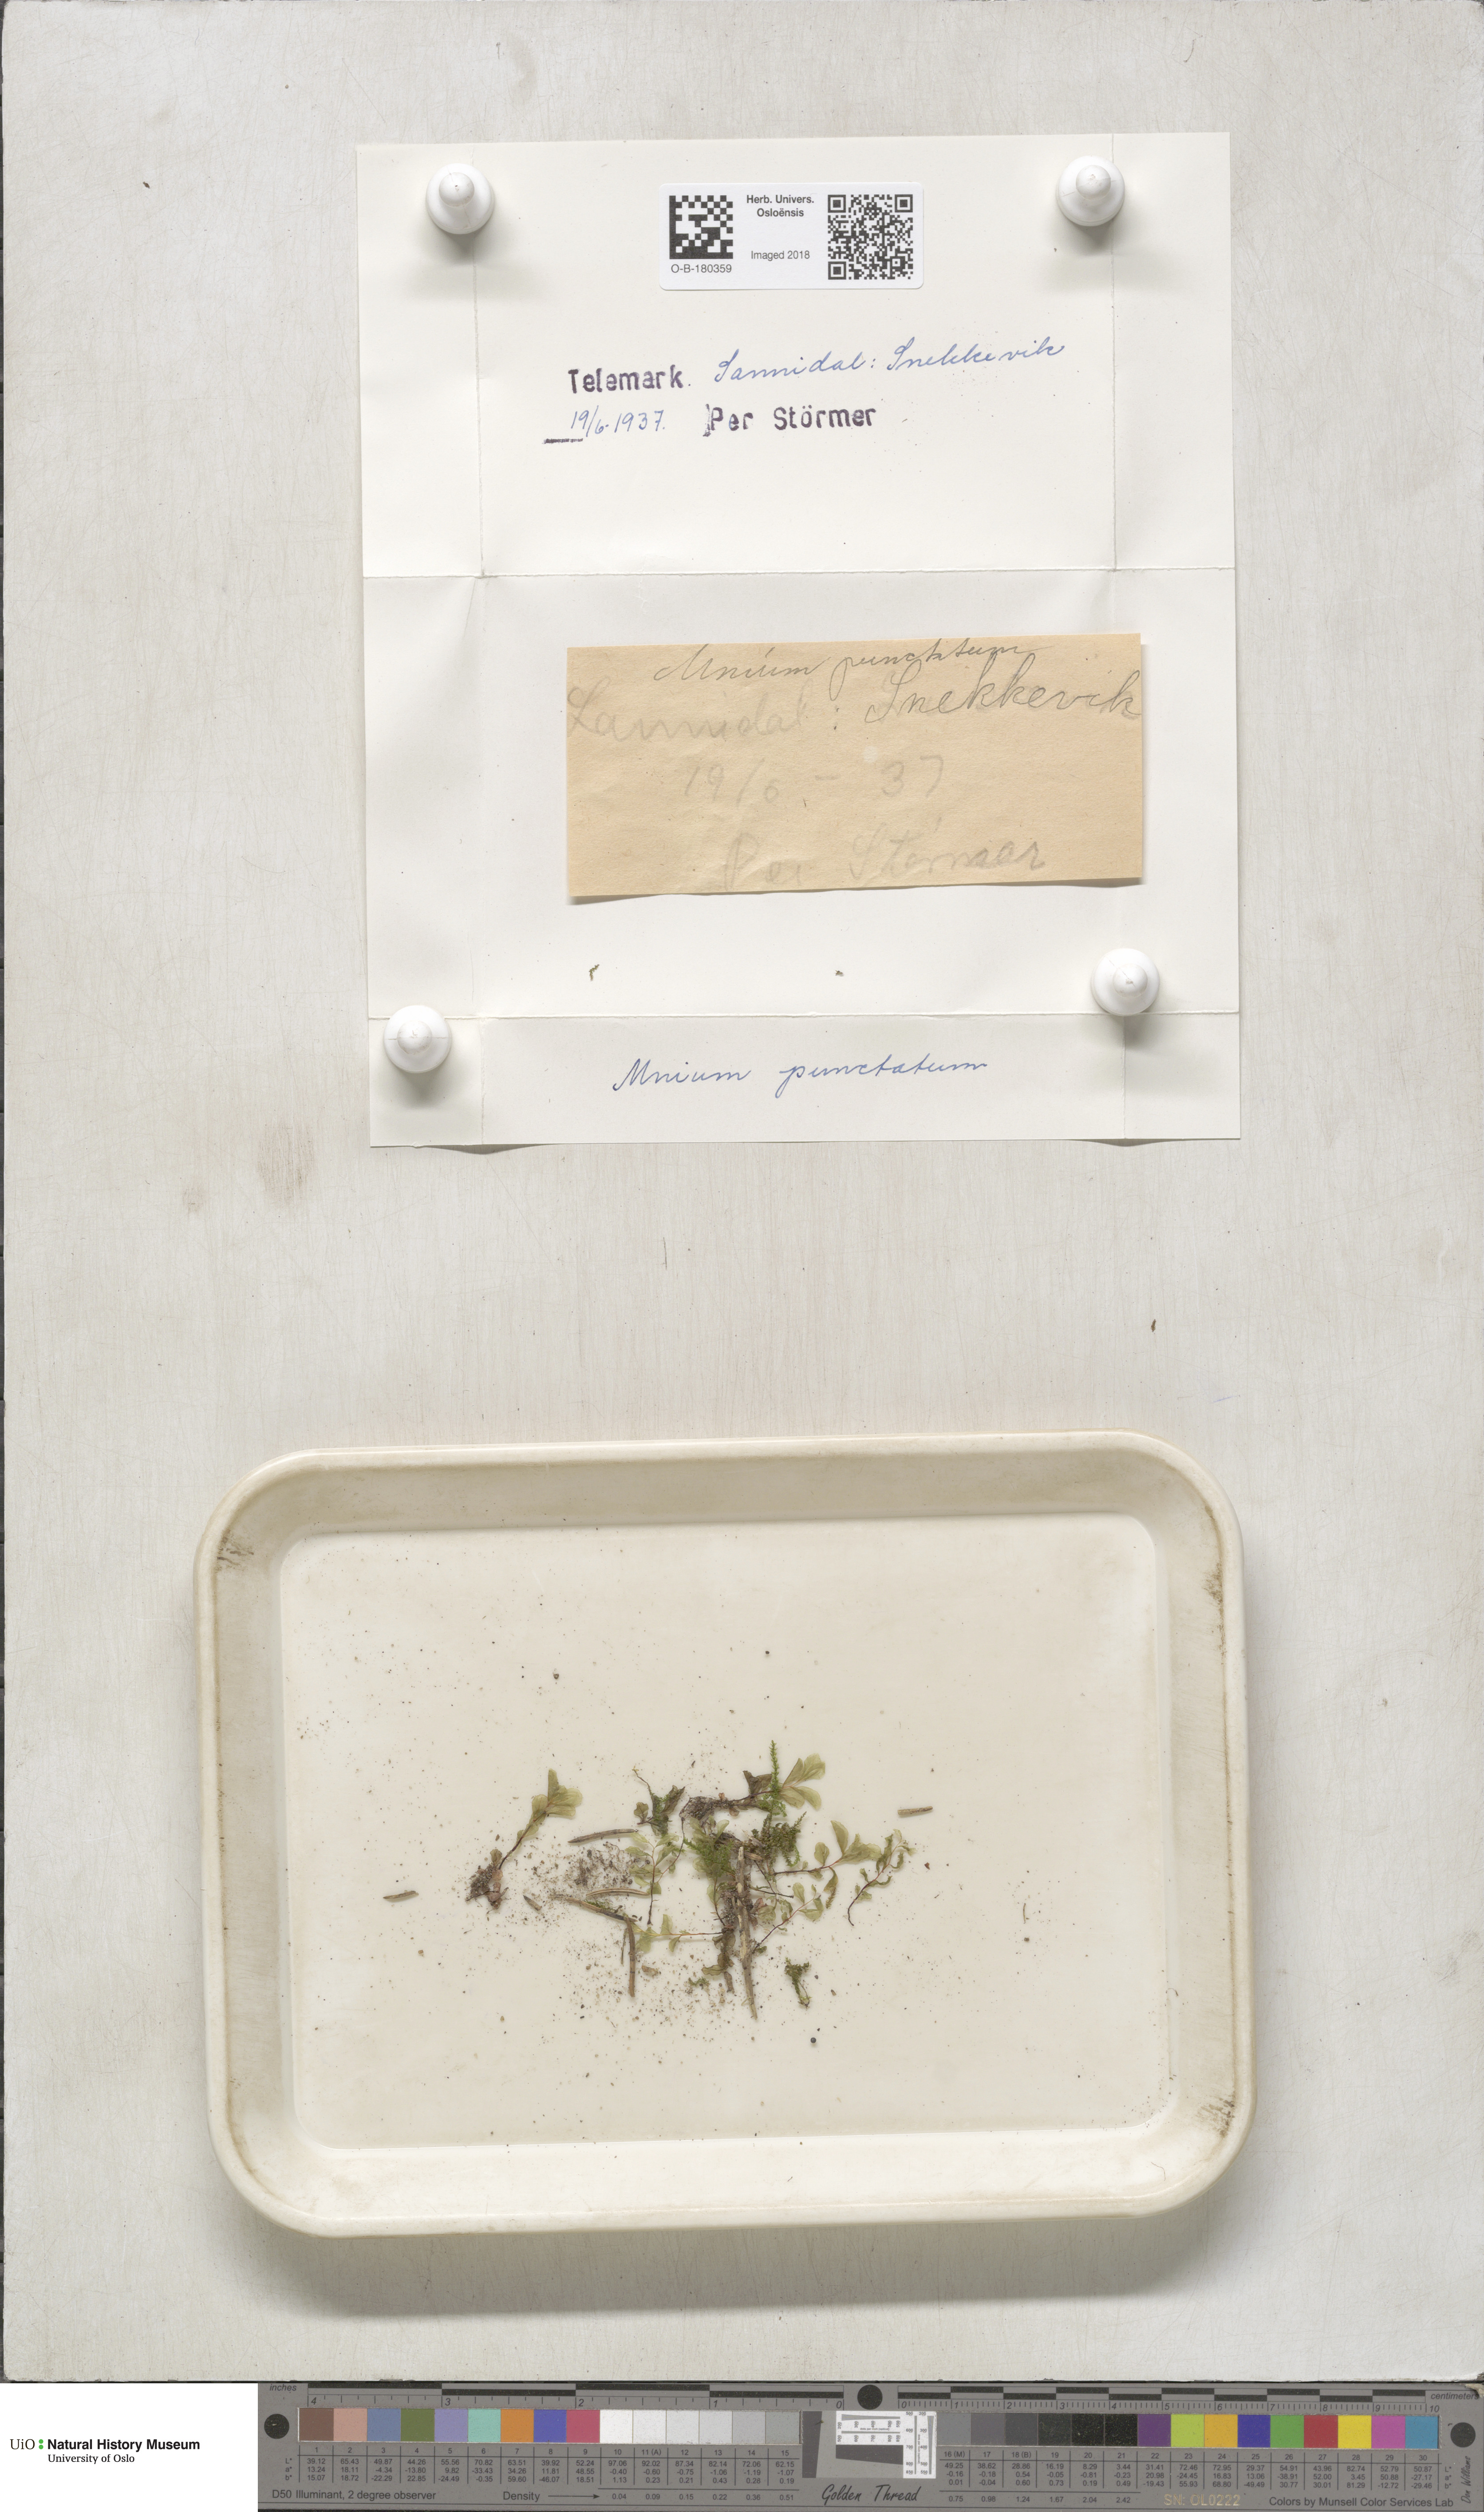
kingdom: Plantae
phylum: Bryophyta
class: Bryopsida
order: Bryales
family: Mniaceae
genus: Rhizomnium
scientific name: Rhizomnium punctatum
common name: Dotted leafy moss
